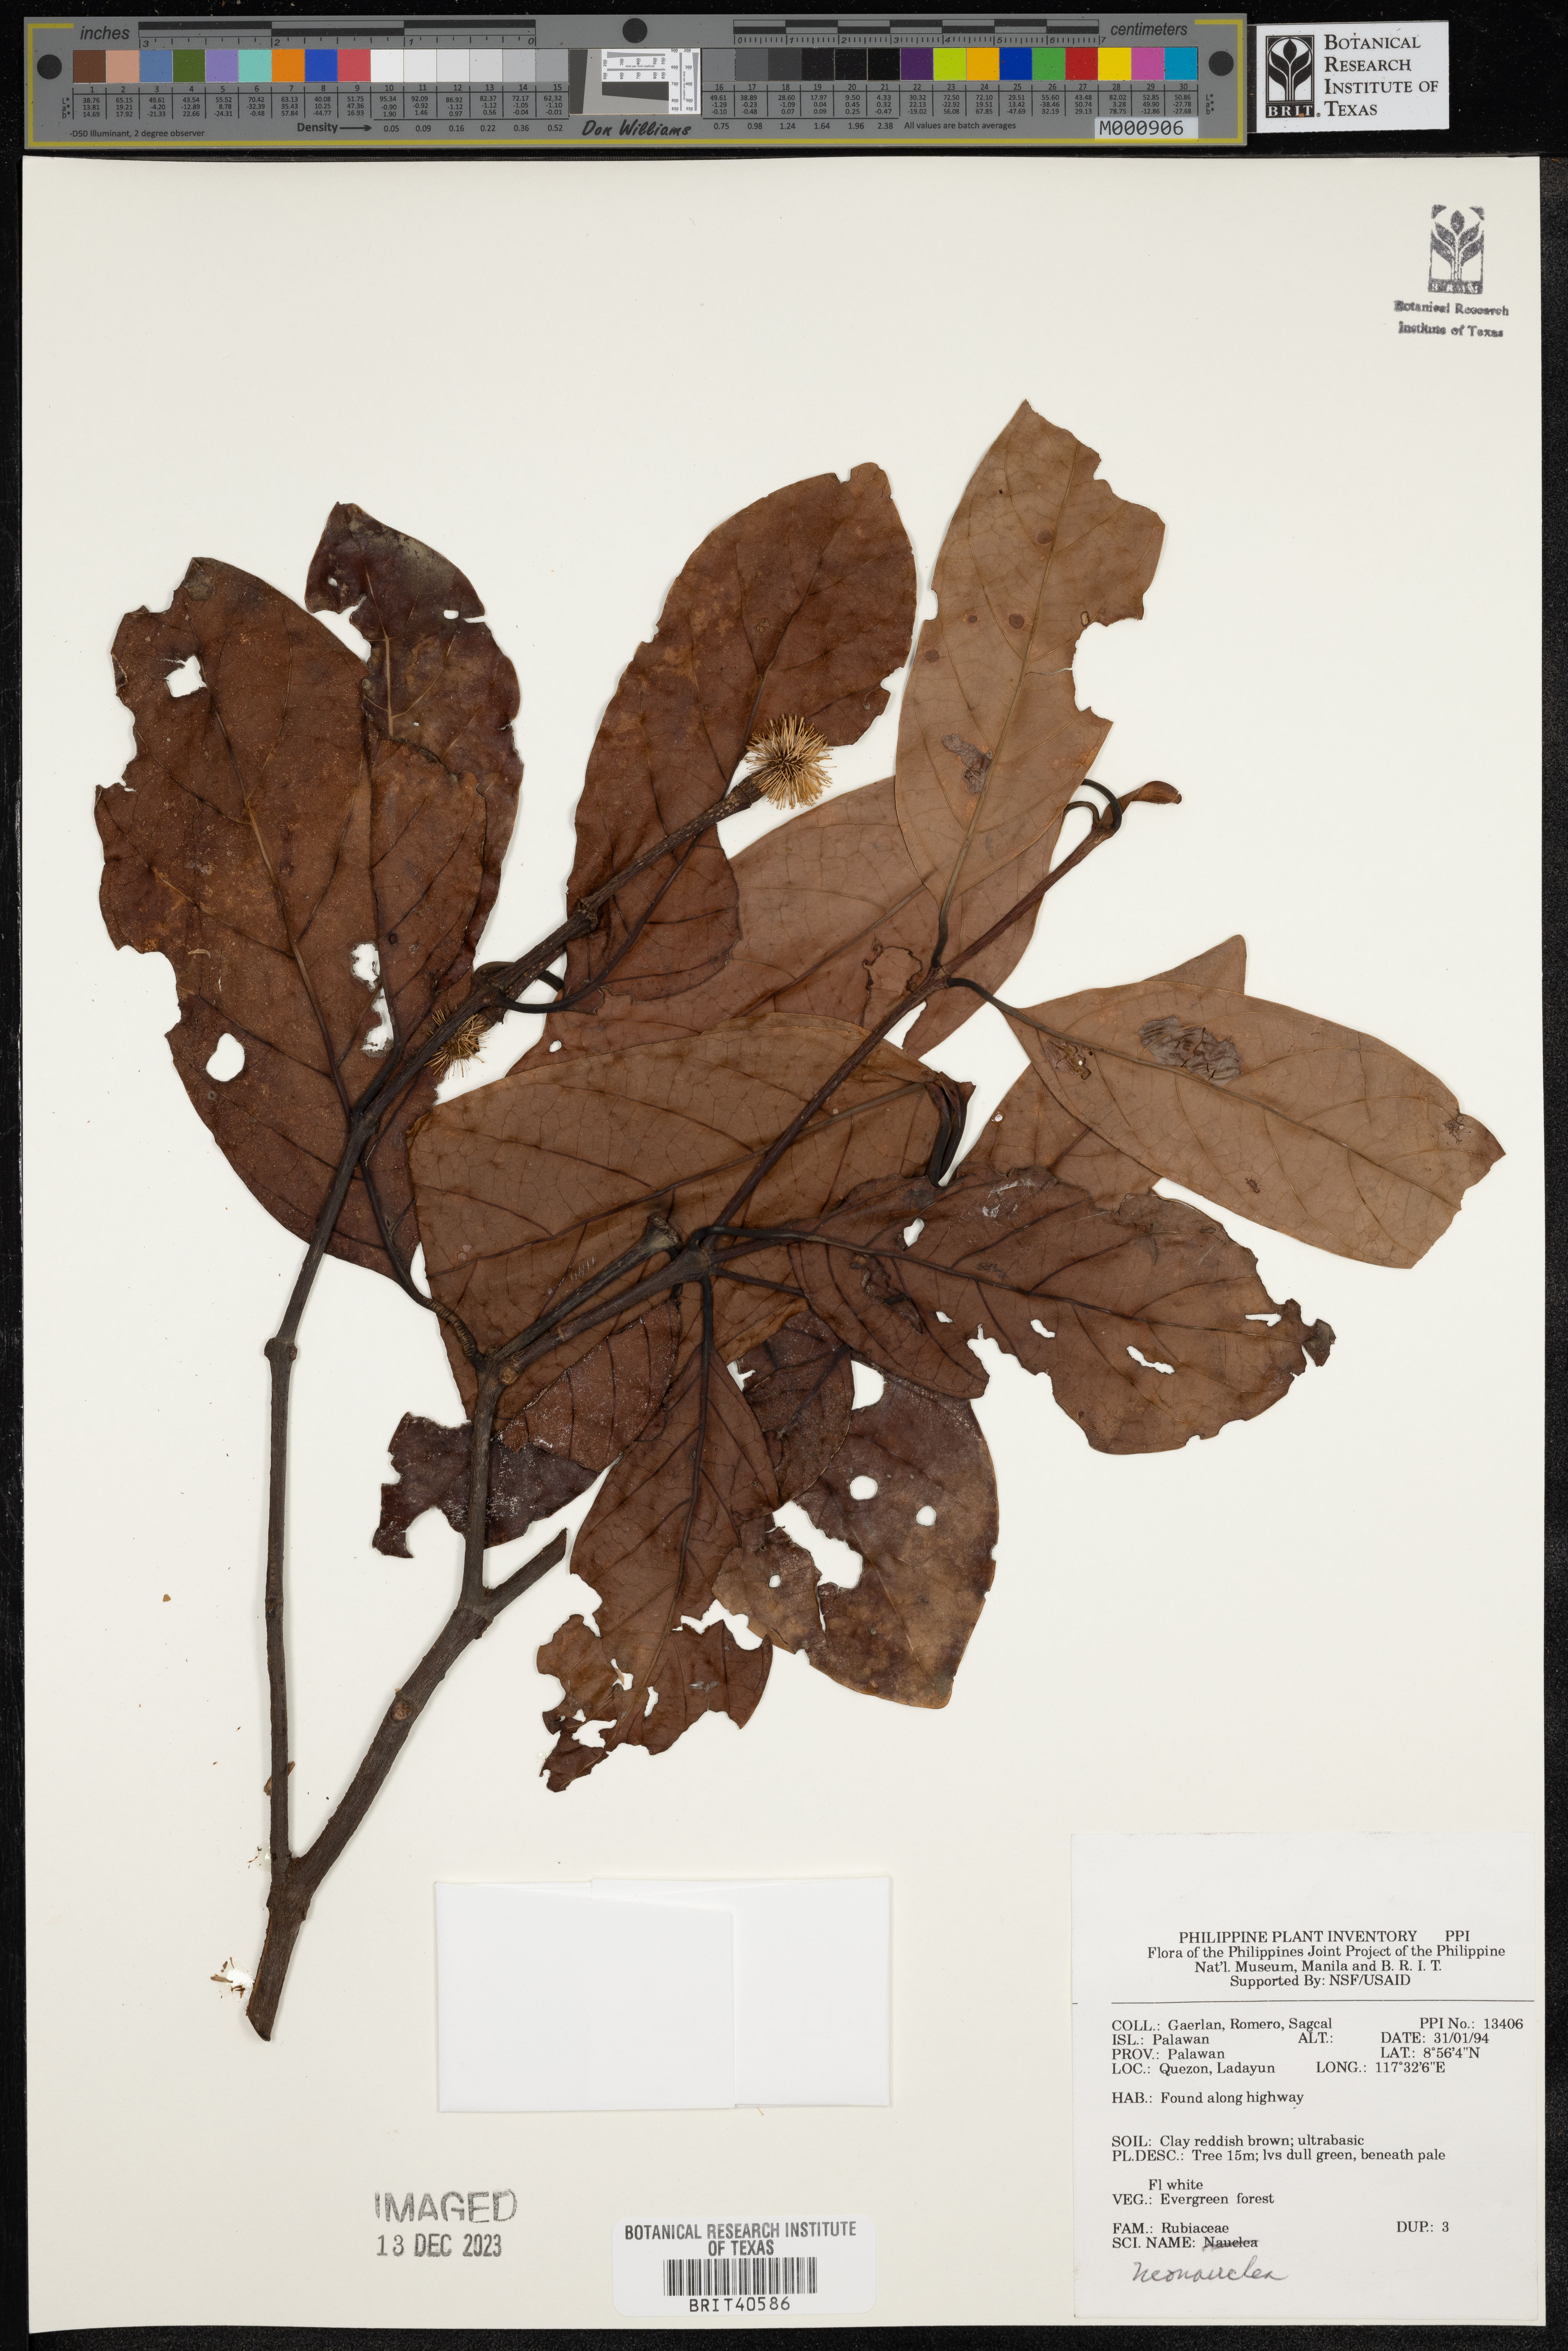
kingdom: Plantae
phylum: Tracheophyta
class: Magnoliopsida
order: Gentianales
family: Rubiaceae
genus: Neonauclea
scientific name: Neonauclea
